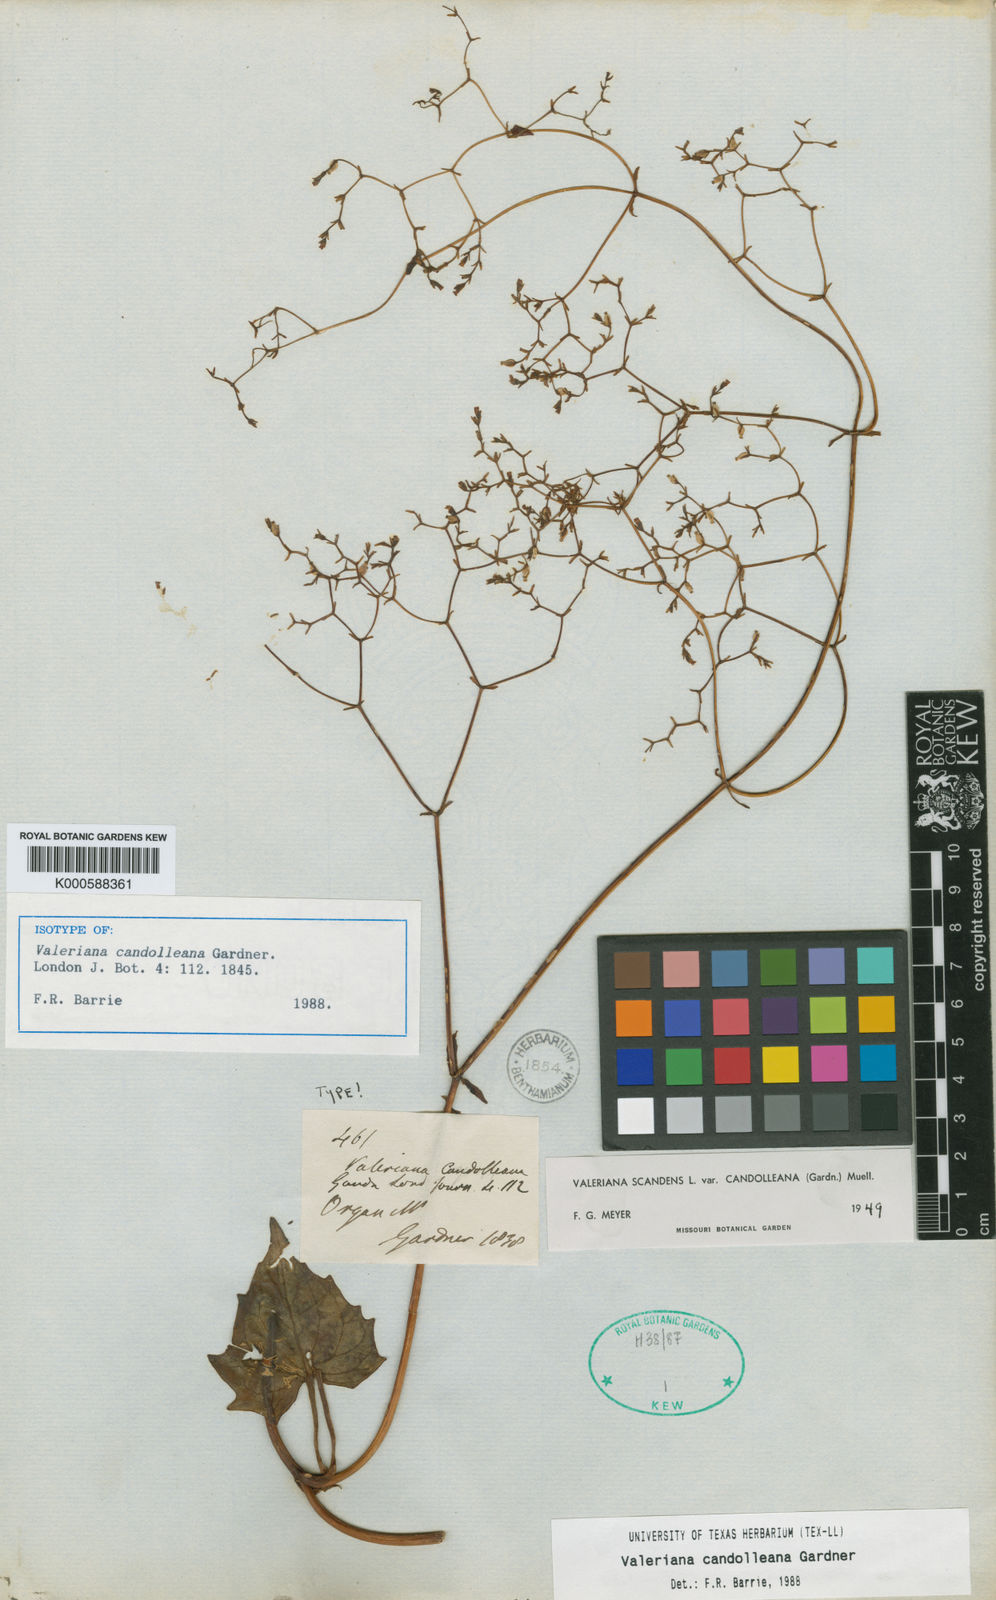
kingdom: Plantae
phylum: Tracheophyta
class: Magnoliopsida
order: Dipsacales
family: Caprifoliaceae
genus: Valeriana
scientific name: Valeriana candolleana
